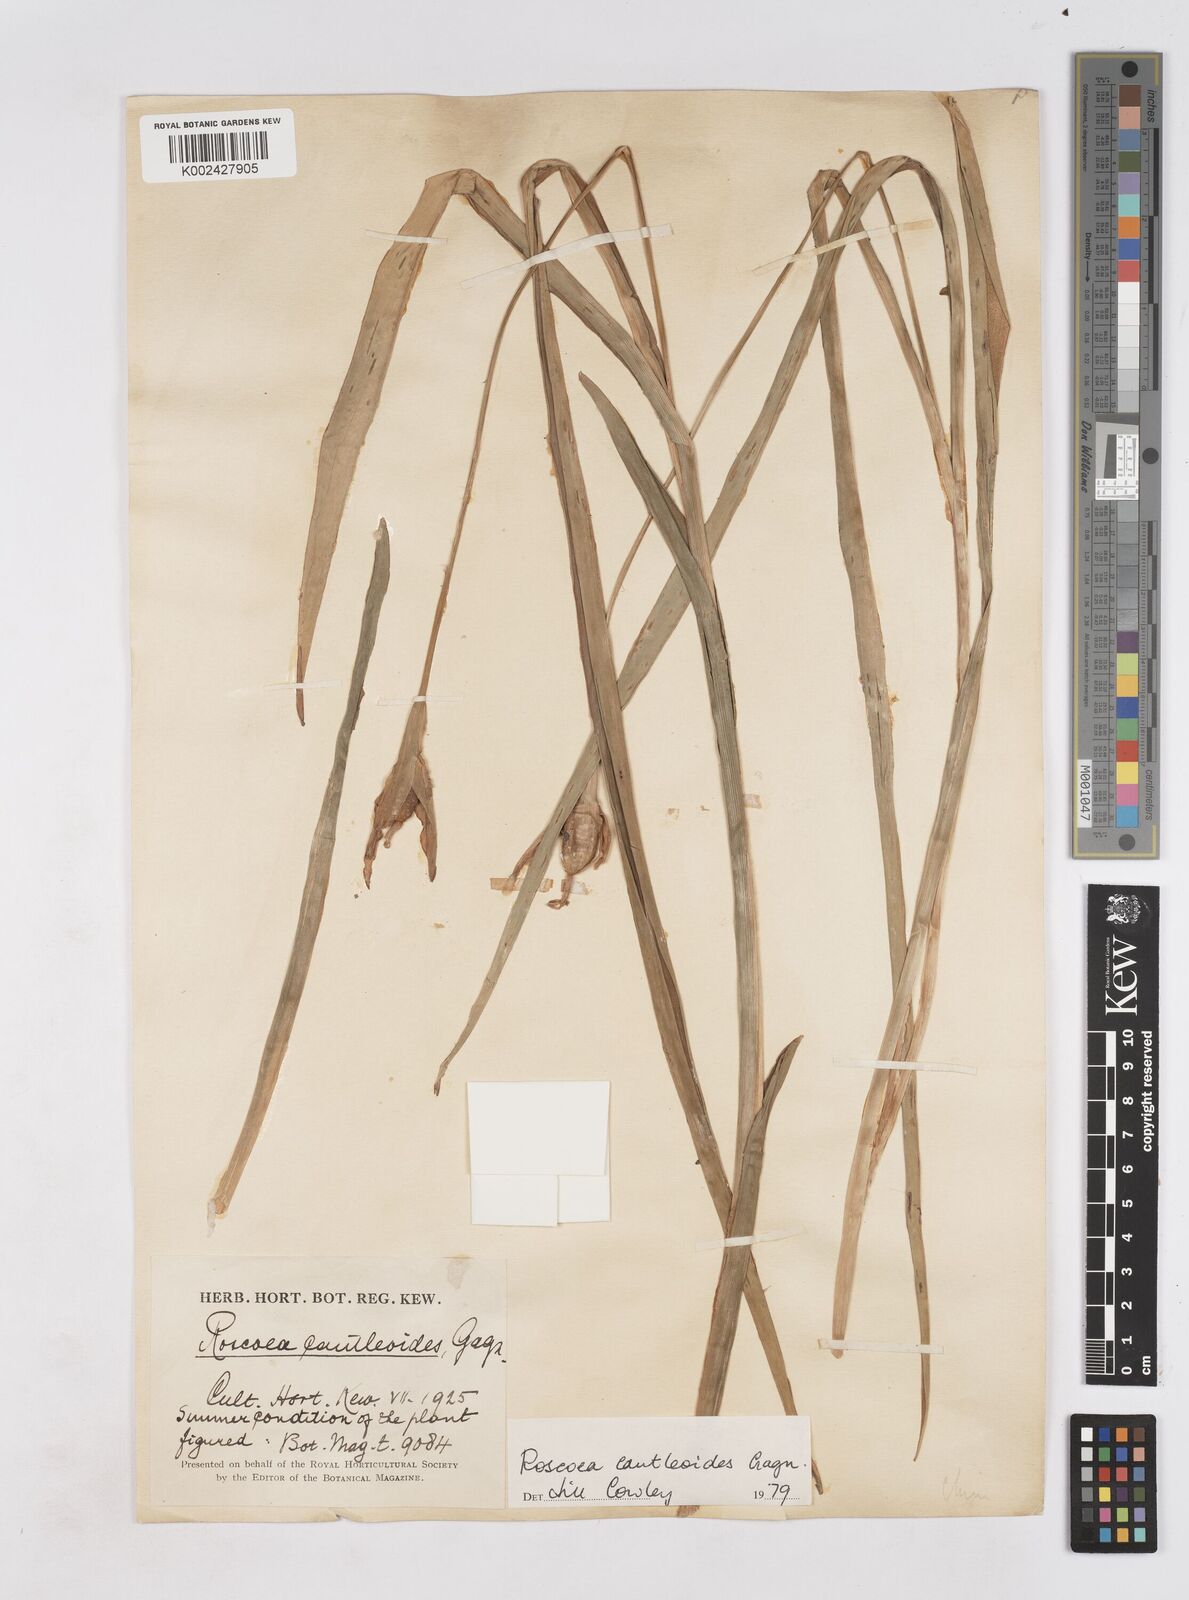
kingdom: Plantae
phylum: Tracheophyta
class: Liliopsida
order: Zingiberales
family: Zingiberaceae
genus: Roscoea
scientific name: Roscoea cautleyoides
